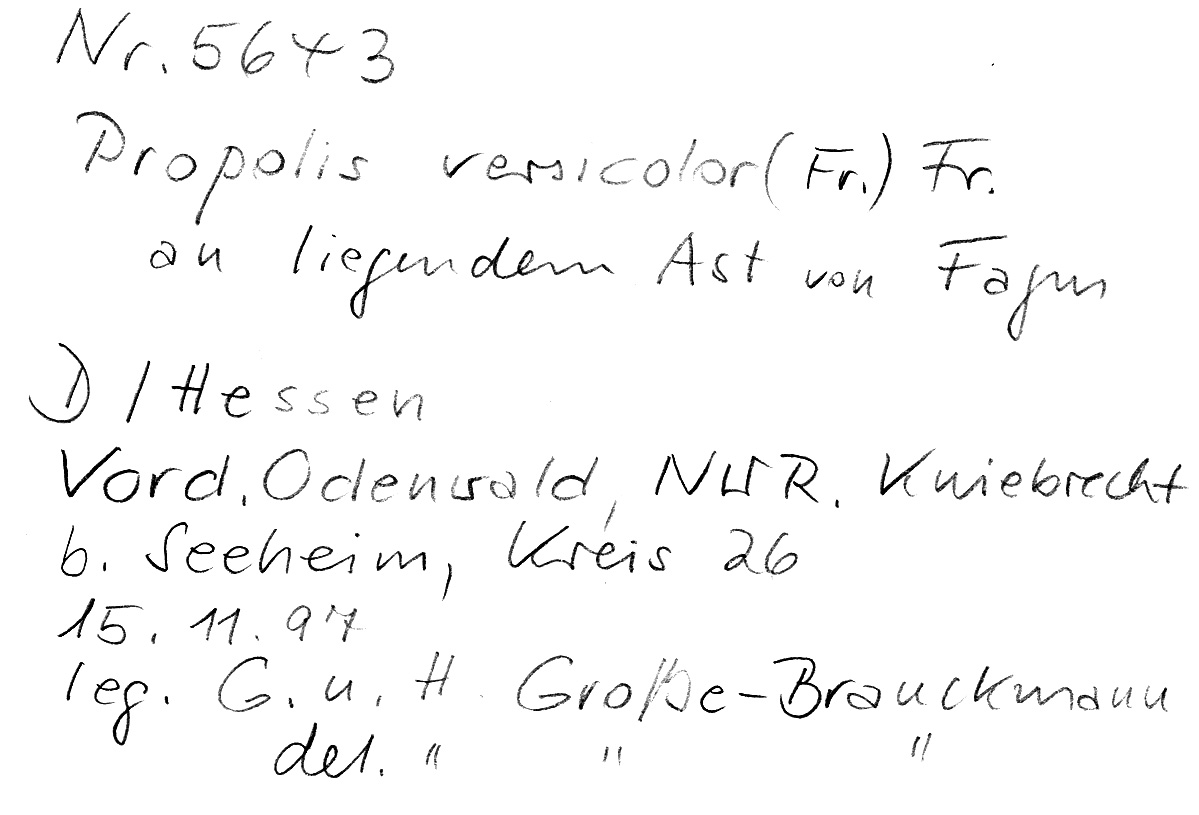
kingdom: Plantae
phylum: Tracheophyta
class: Magnoliopsida
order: Fagales
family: Fagaceae
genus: Fagus
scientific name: Fagus sylvatica
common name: Beech
